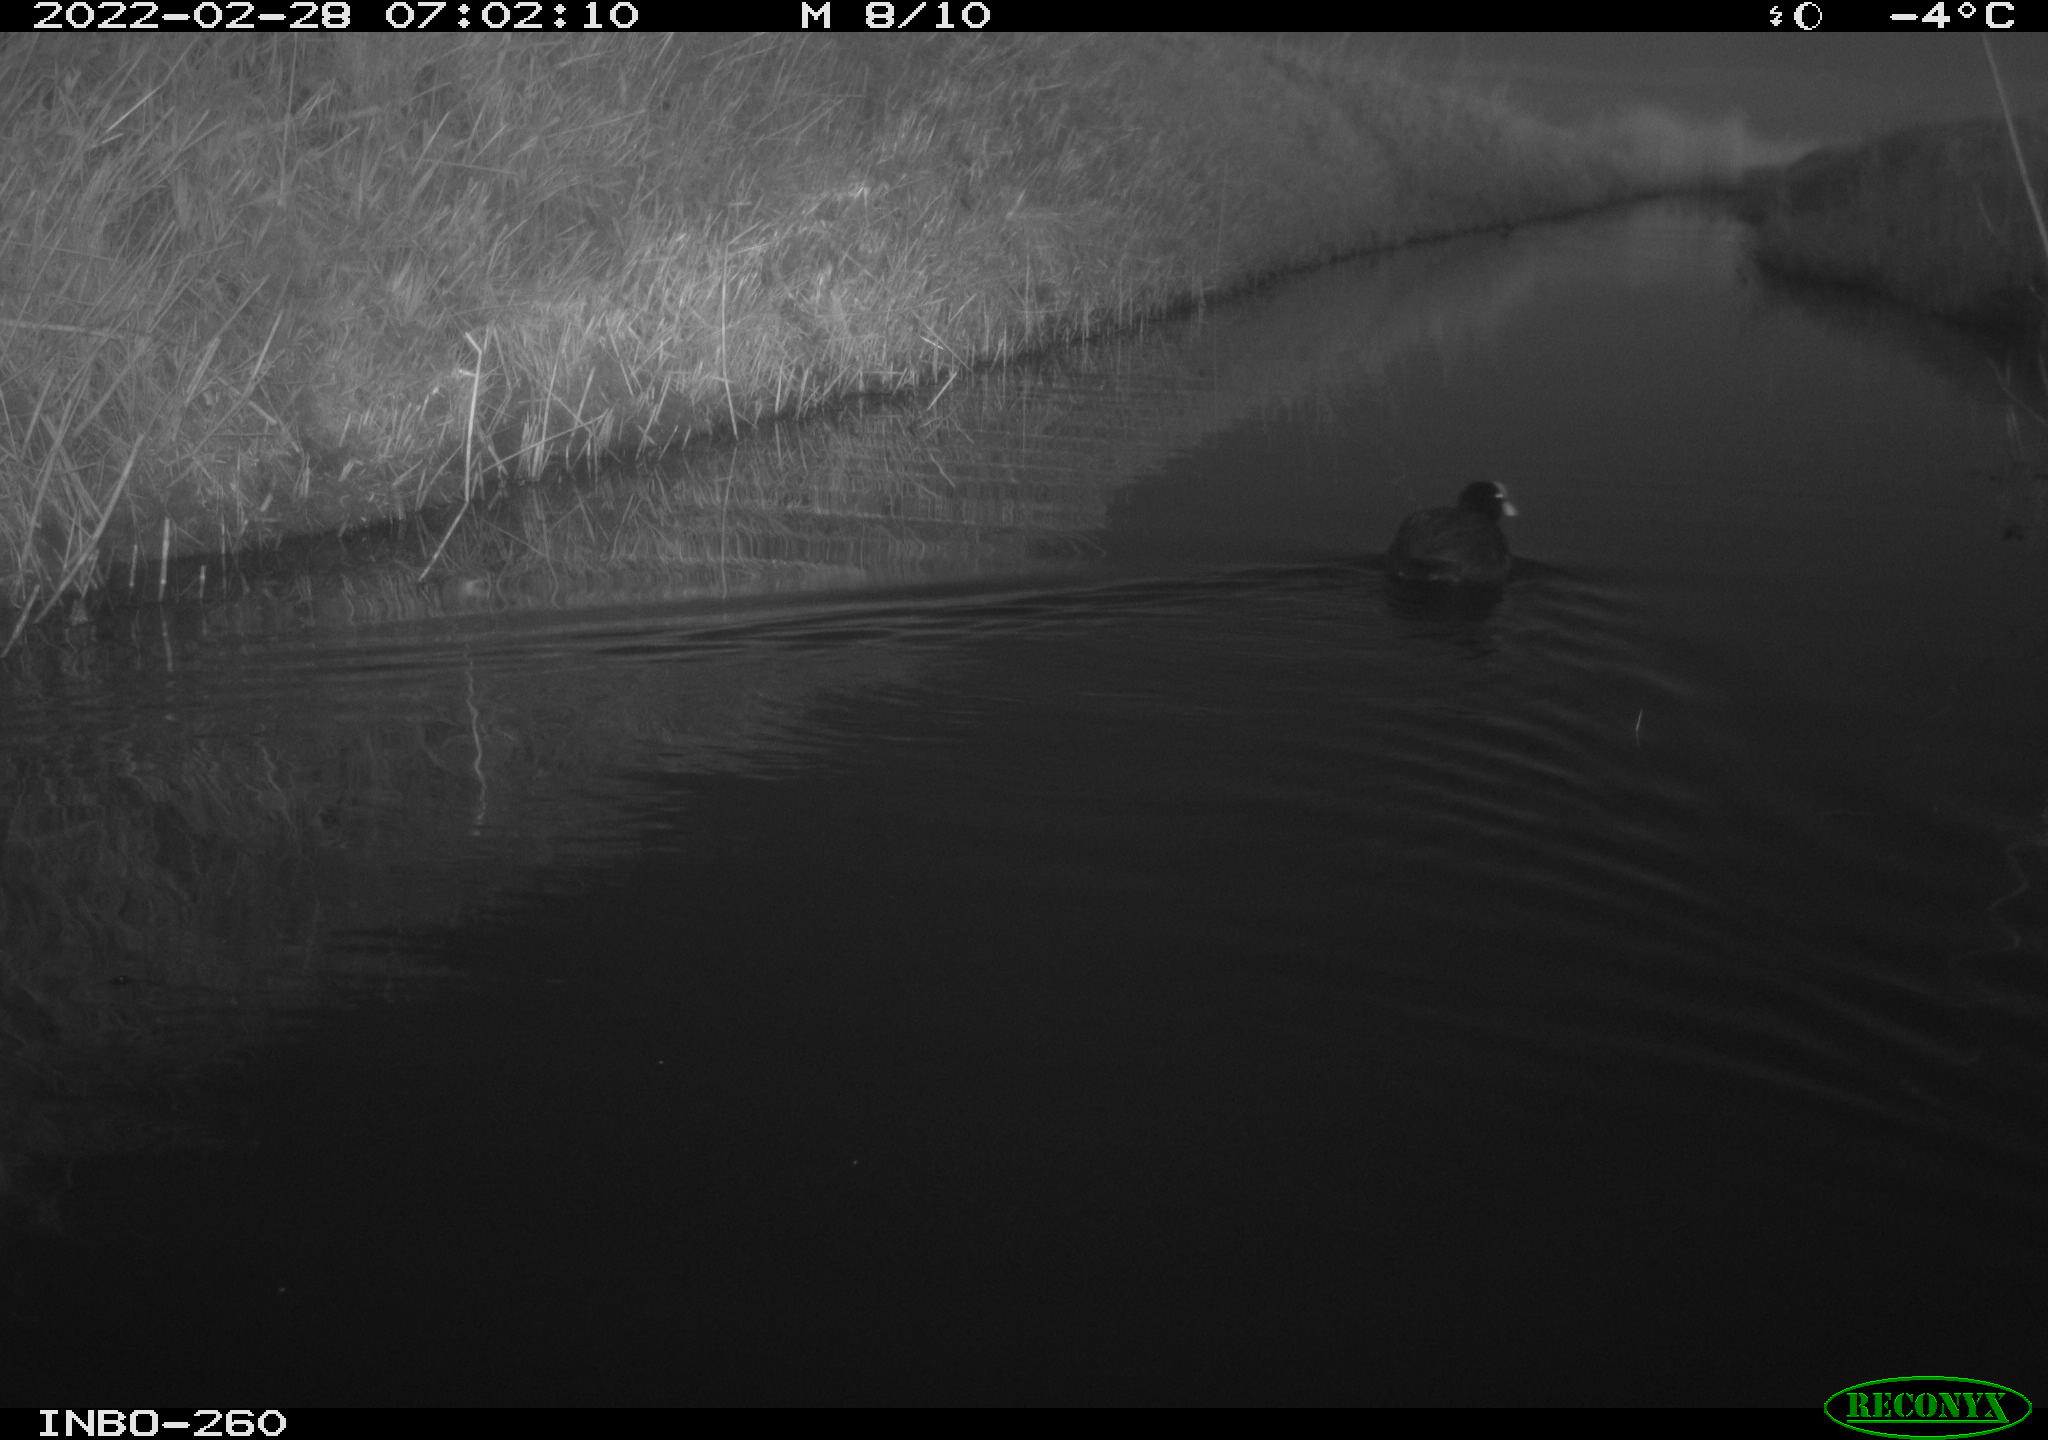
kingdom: Animalia
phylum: Chordata
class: Aves
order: Gruiformes
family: Rallidae
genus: Fulica
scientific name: Fulica atra
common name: Eurasian coot
